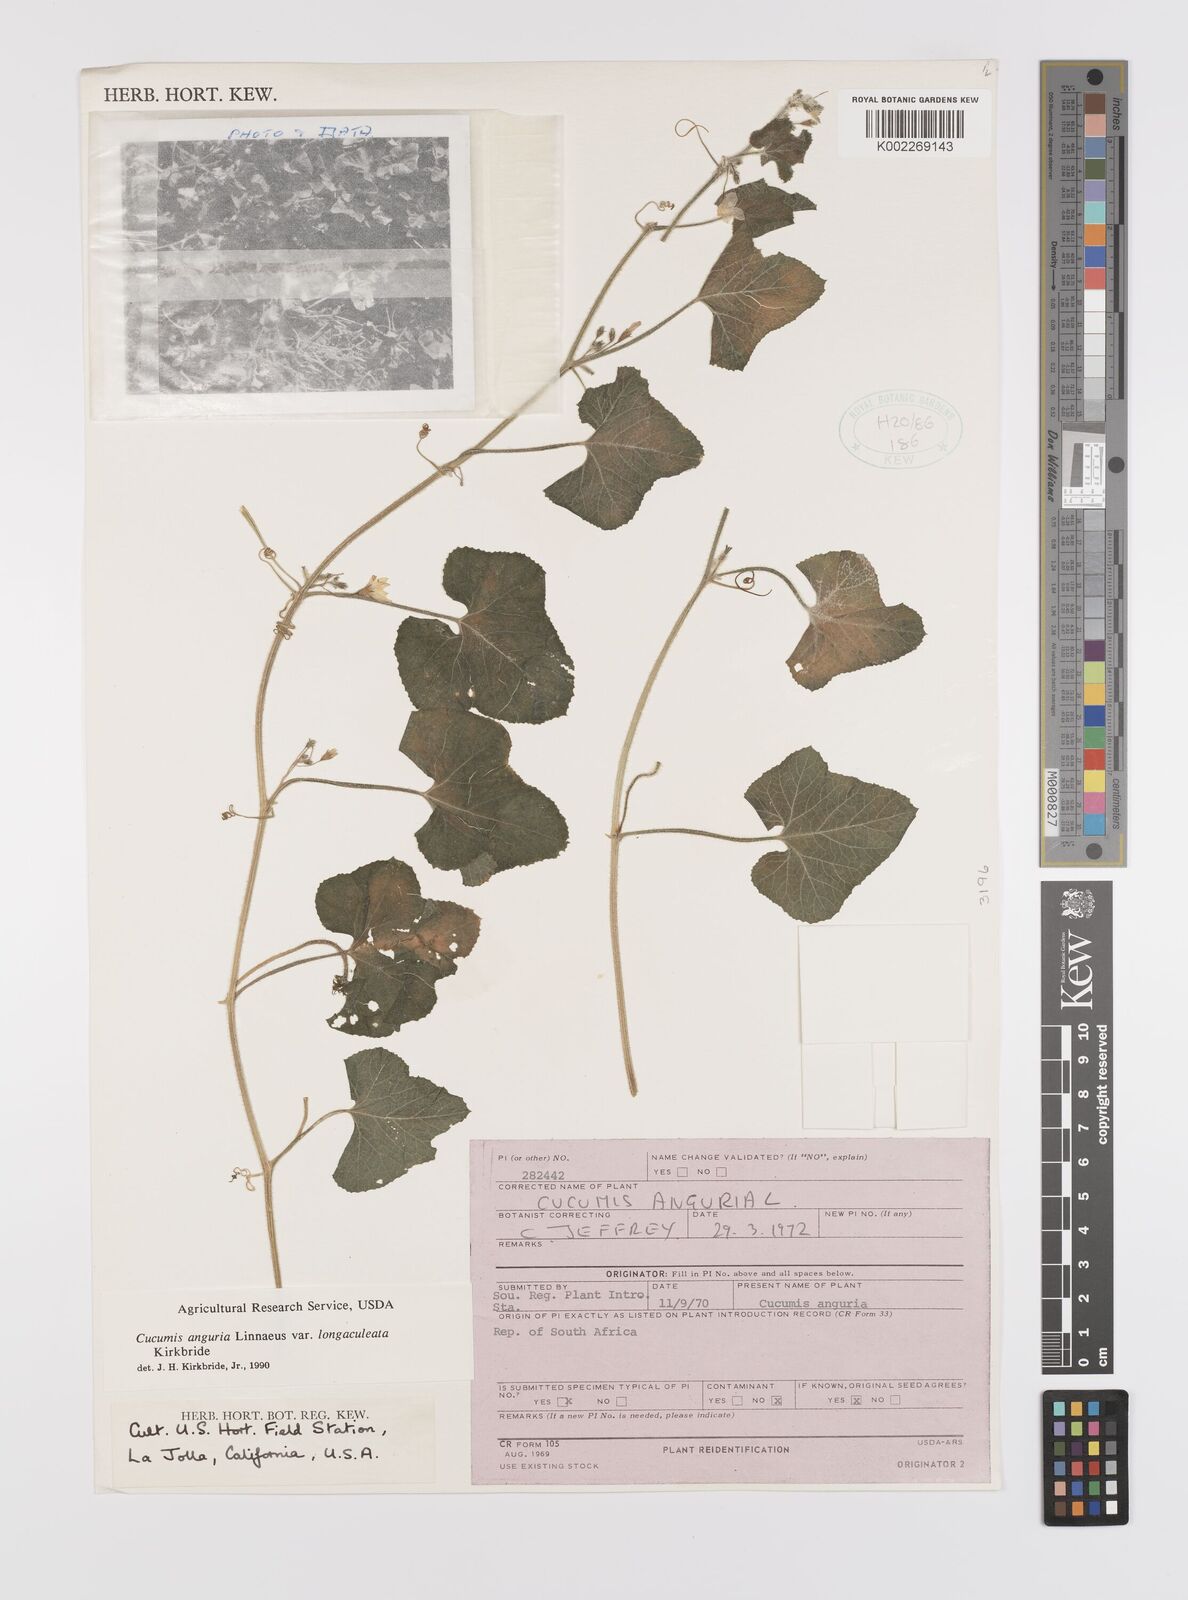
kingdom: Plantae
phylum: Tracheophyta
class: Magnoliopsida
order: Cucurbitales
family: Cucurbitaceae
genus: Cucumis
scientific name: Cucumis anguria
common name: West indian gherkin
